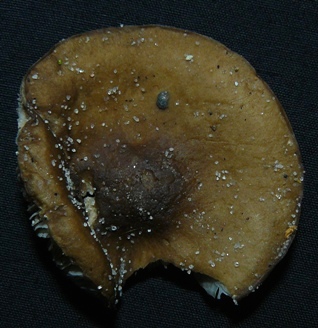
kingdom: Fungi
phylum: Basidiomycota
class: Agaricomycetes
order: Agaricales
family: Tricholomataceae
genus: Melanoleuca
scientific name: Melanoleuca polioleuca
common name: almindelig munkehat
